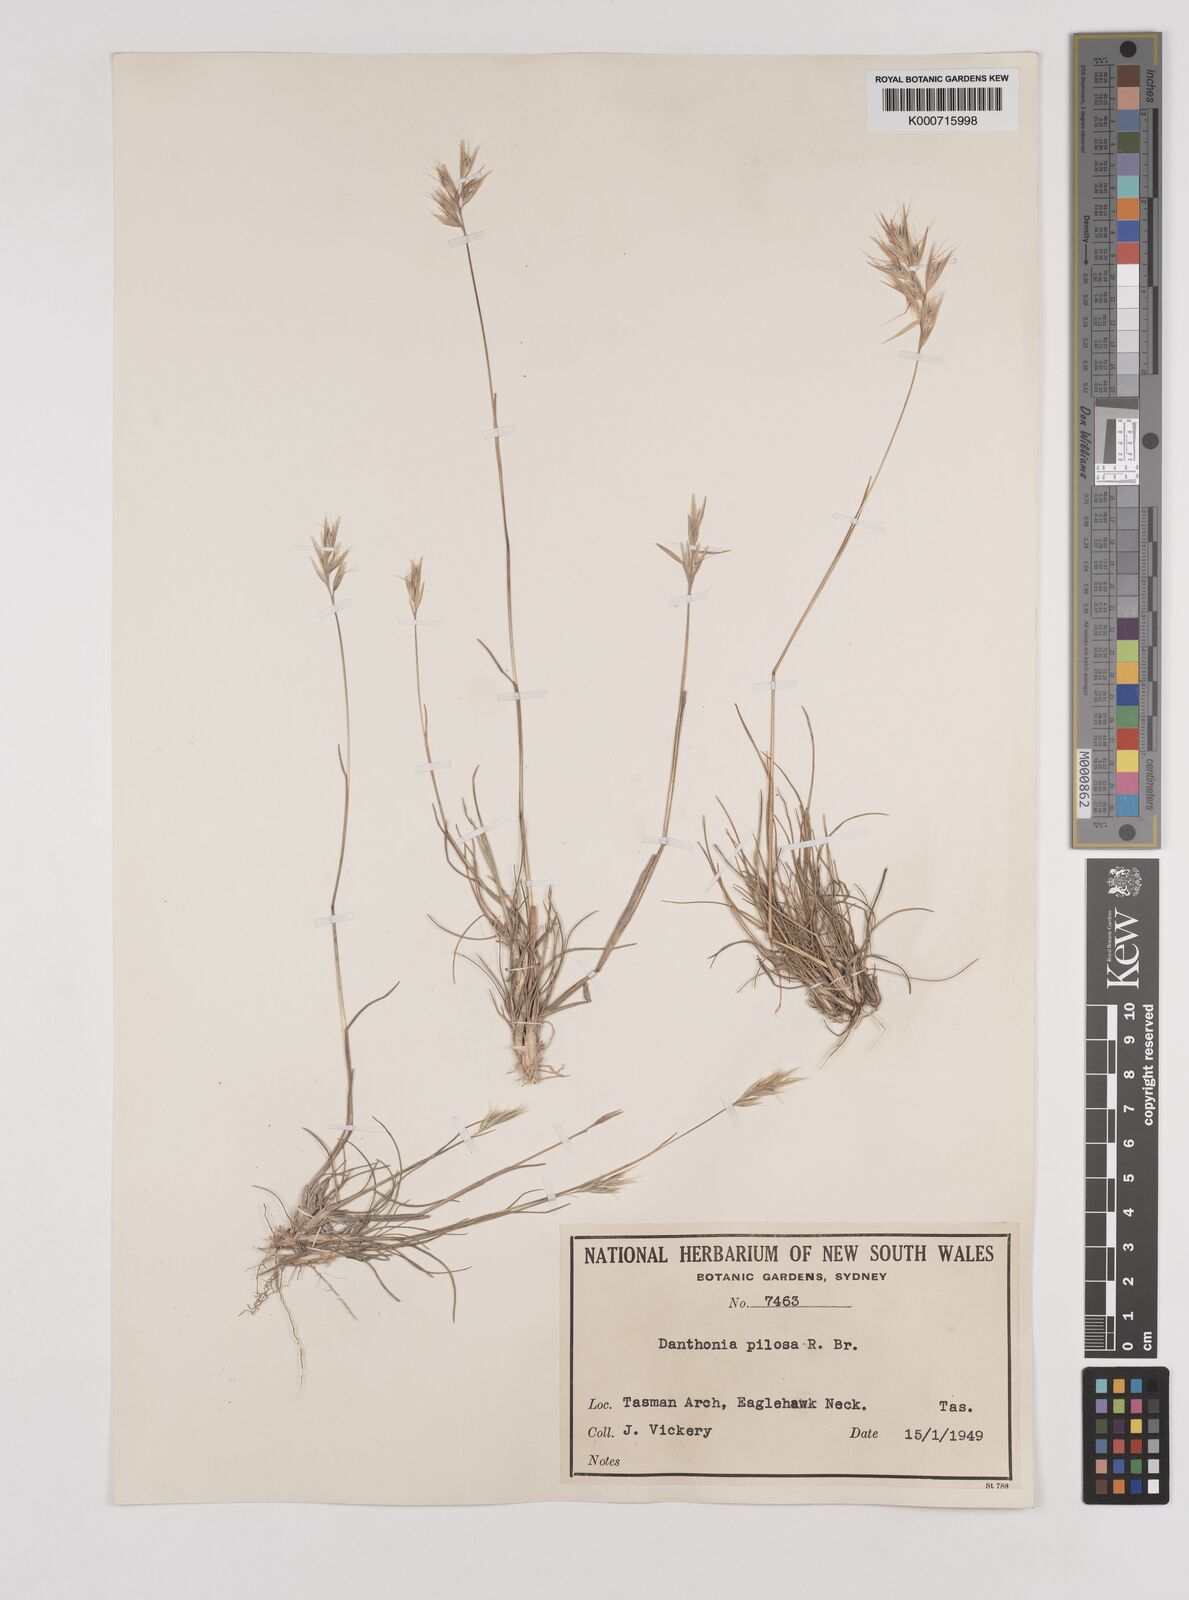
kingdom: Plantae
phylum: Tracheophyta
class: Liliopsida
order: Poales
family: Poaceae
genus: Rytidosperma
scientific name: Rytidosperma pilosum
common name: Hairy wallaby grass
